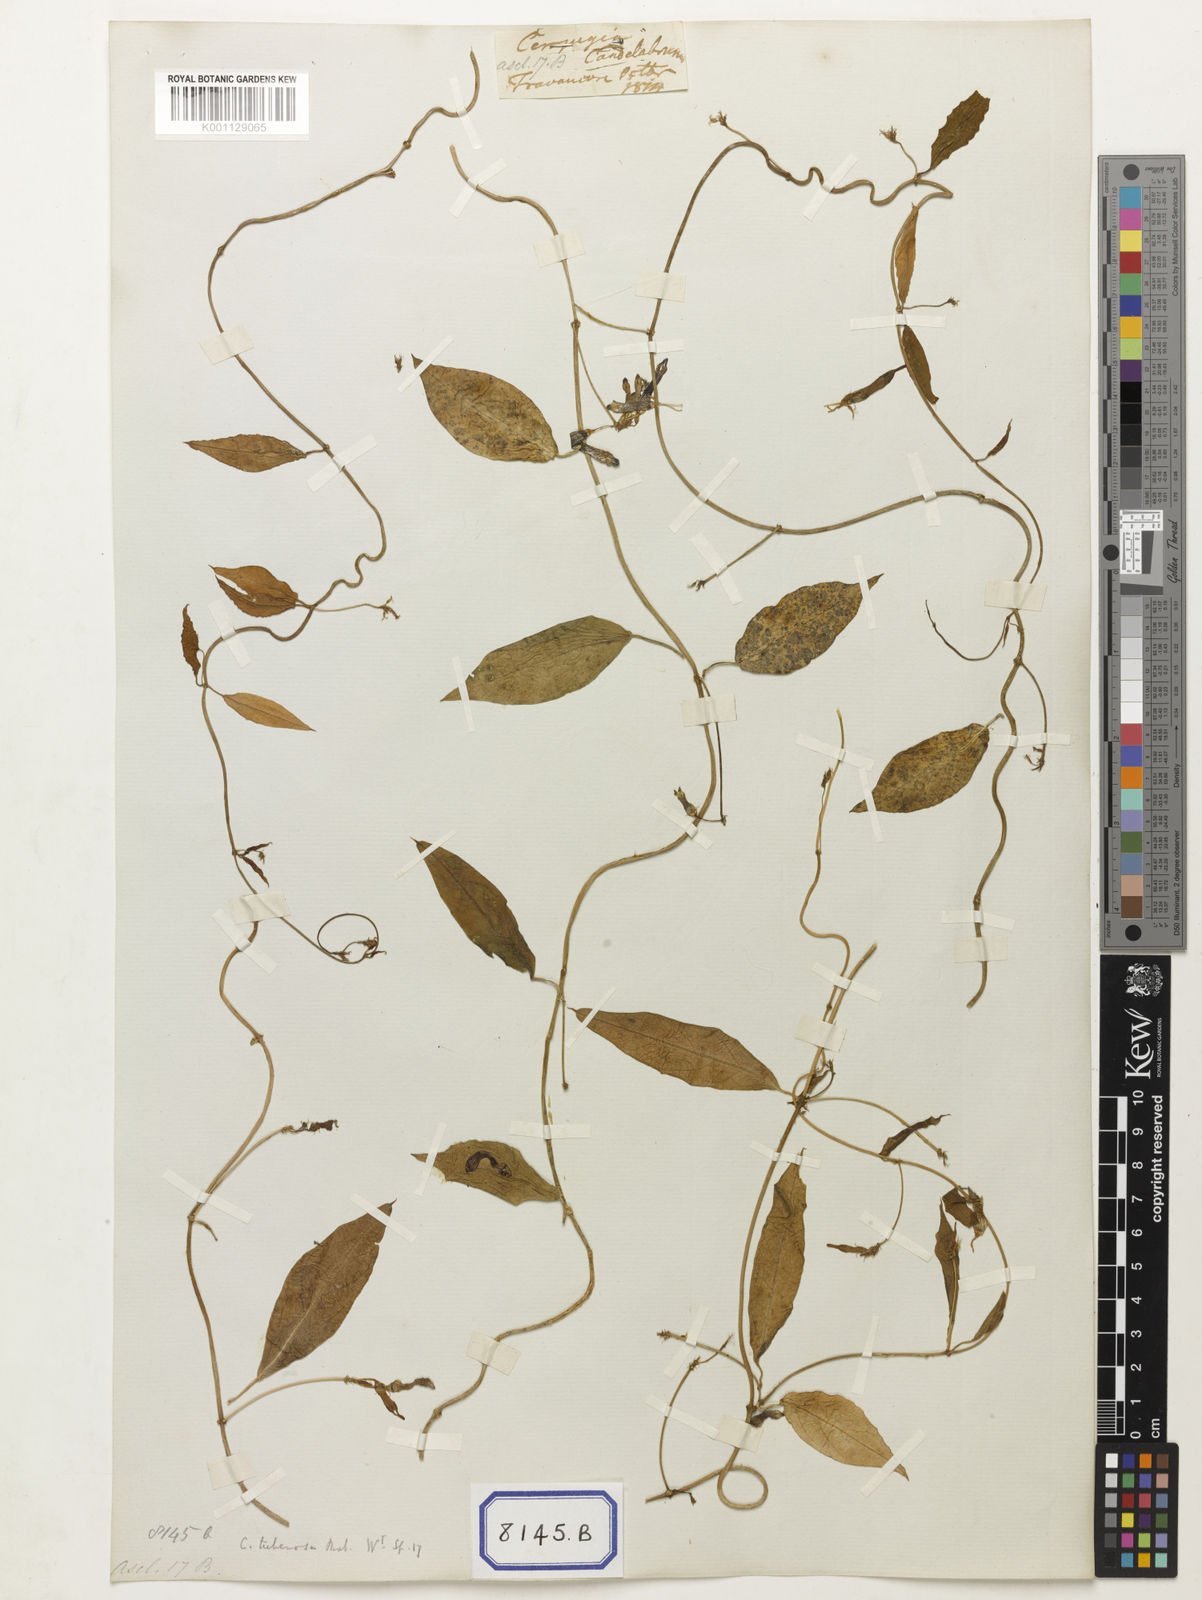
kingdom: Plantae
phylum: Tracheophyta
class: Magnoliopsida
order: Gentianales
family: Apocynaceae
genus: Ceropegia
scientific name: Ceropegia
